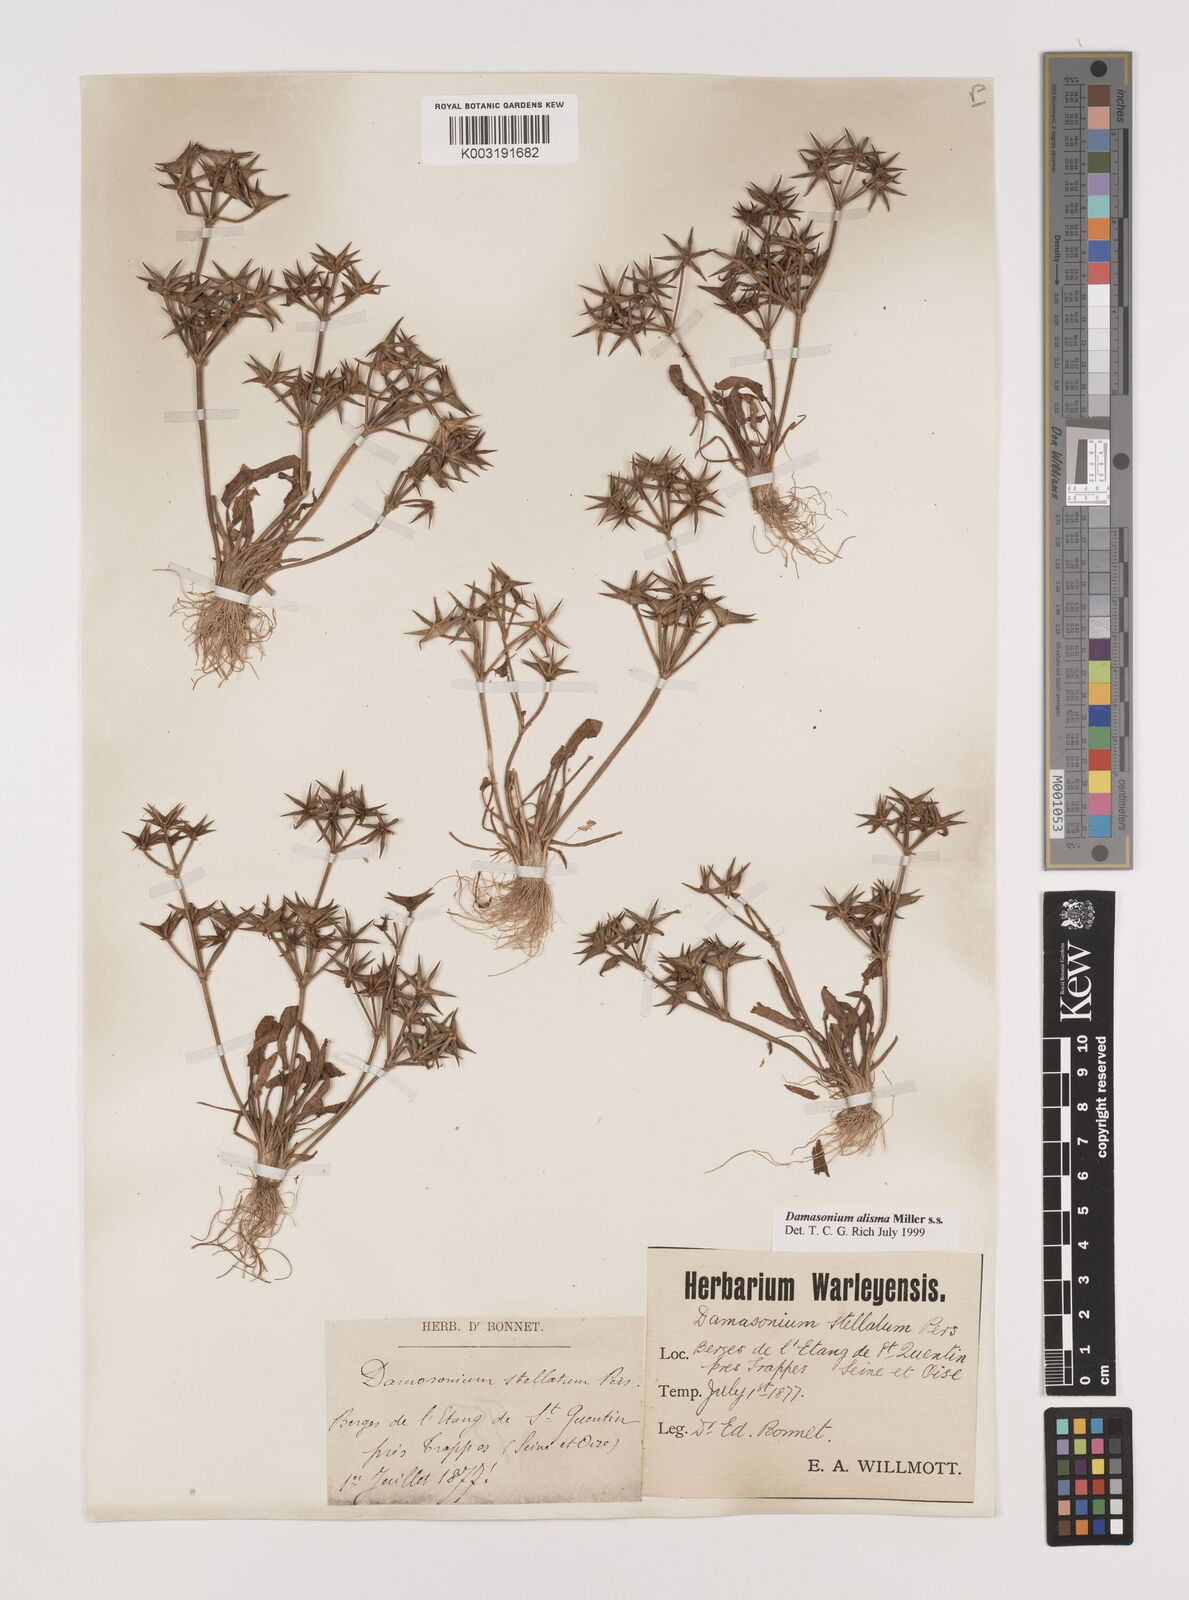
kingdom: Plantae
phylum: Tracheophyta
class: Liliopsida
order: Alismatales
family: Alismataceae
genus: Damasonium
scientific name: Damasonium alisma
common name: Starfruit
